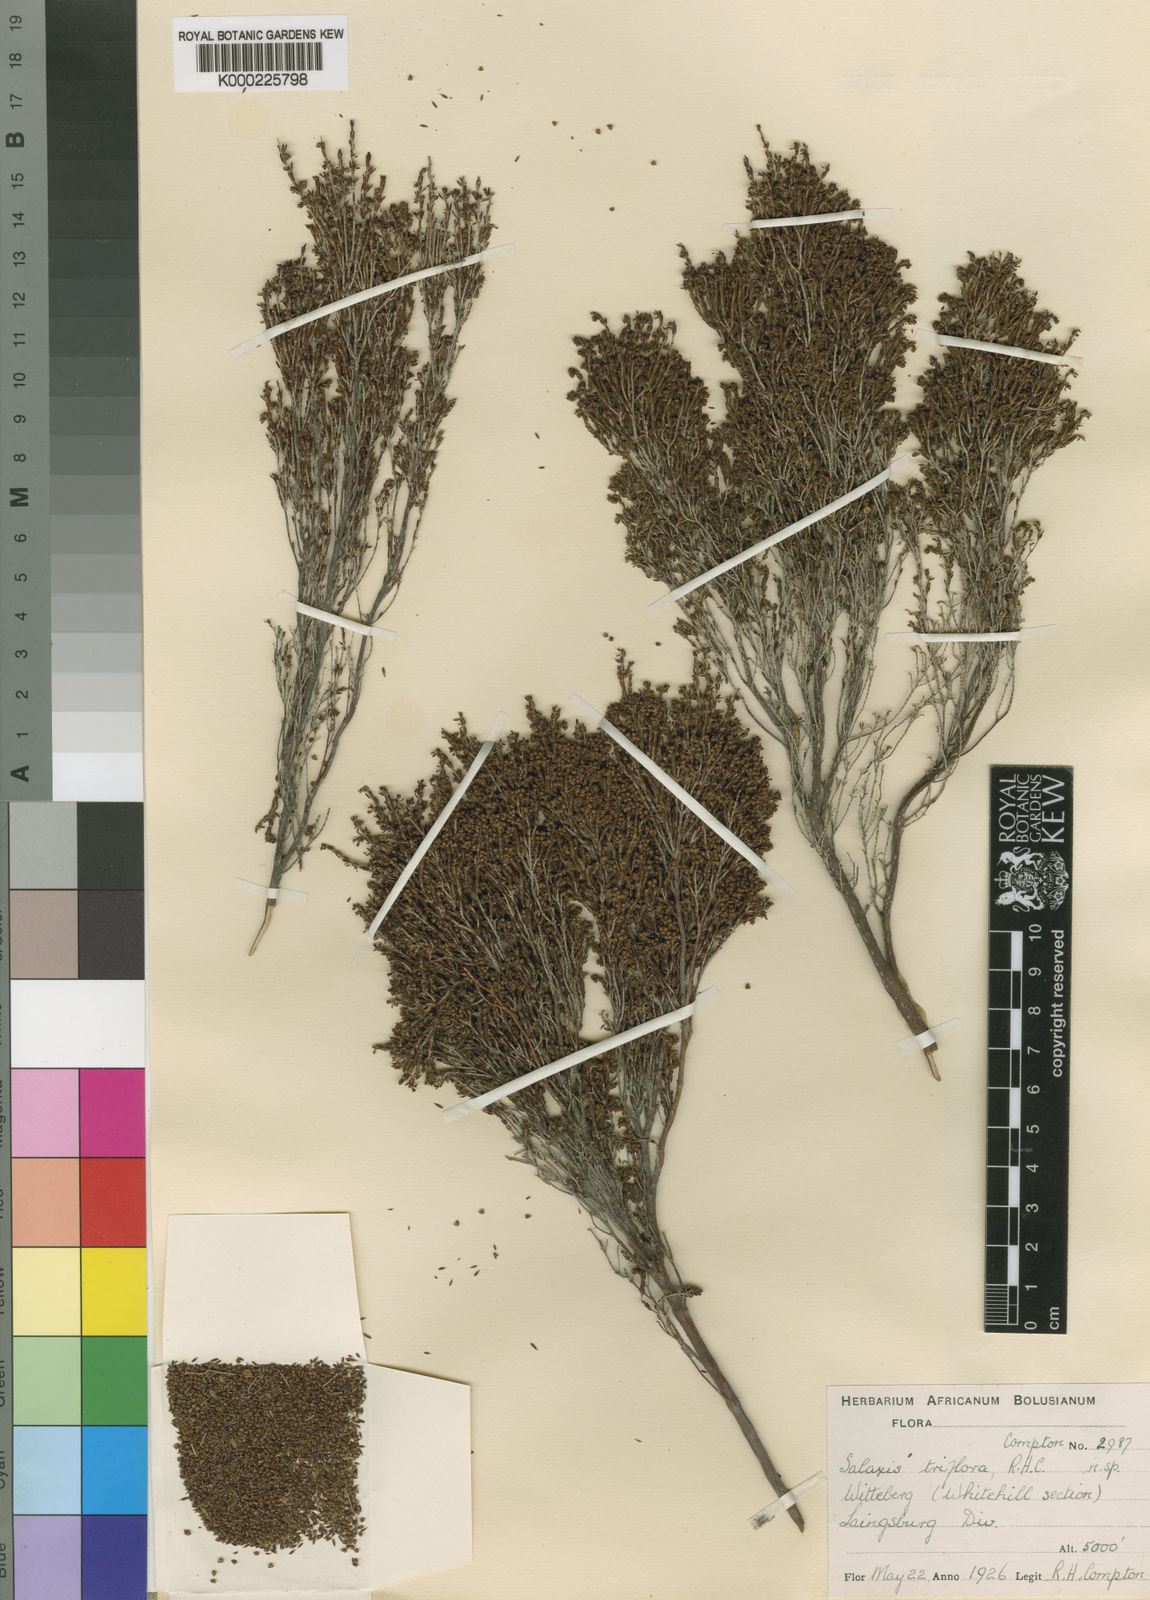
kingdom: Plantae
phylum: Tracheophyta
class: Magnoliopsida
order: Ericales
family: Ericaceae
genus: Erica
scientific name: Erica terniflora
